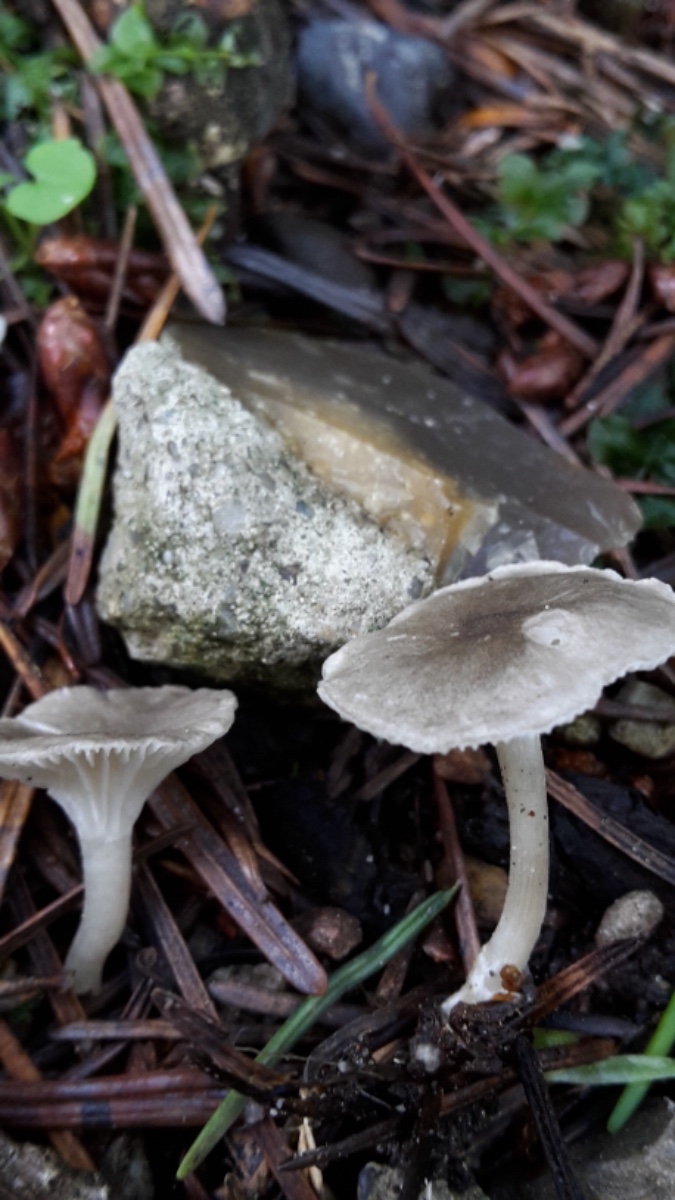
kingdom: Fungi
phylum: Basidiomycota
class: Agaricomycetes
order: Agaricales
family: Hygrophoraceae
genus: Spodocybe
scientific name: Spodocybe trulliformis
